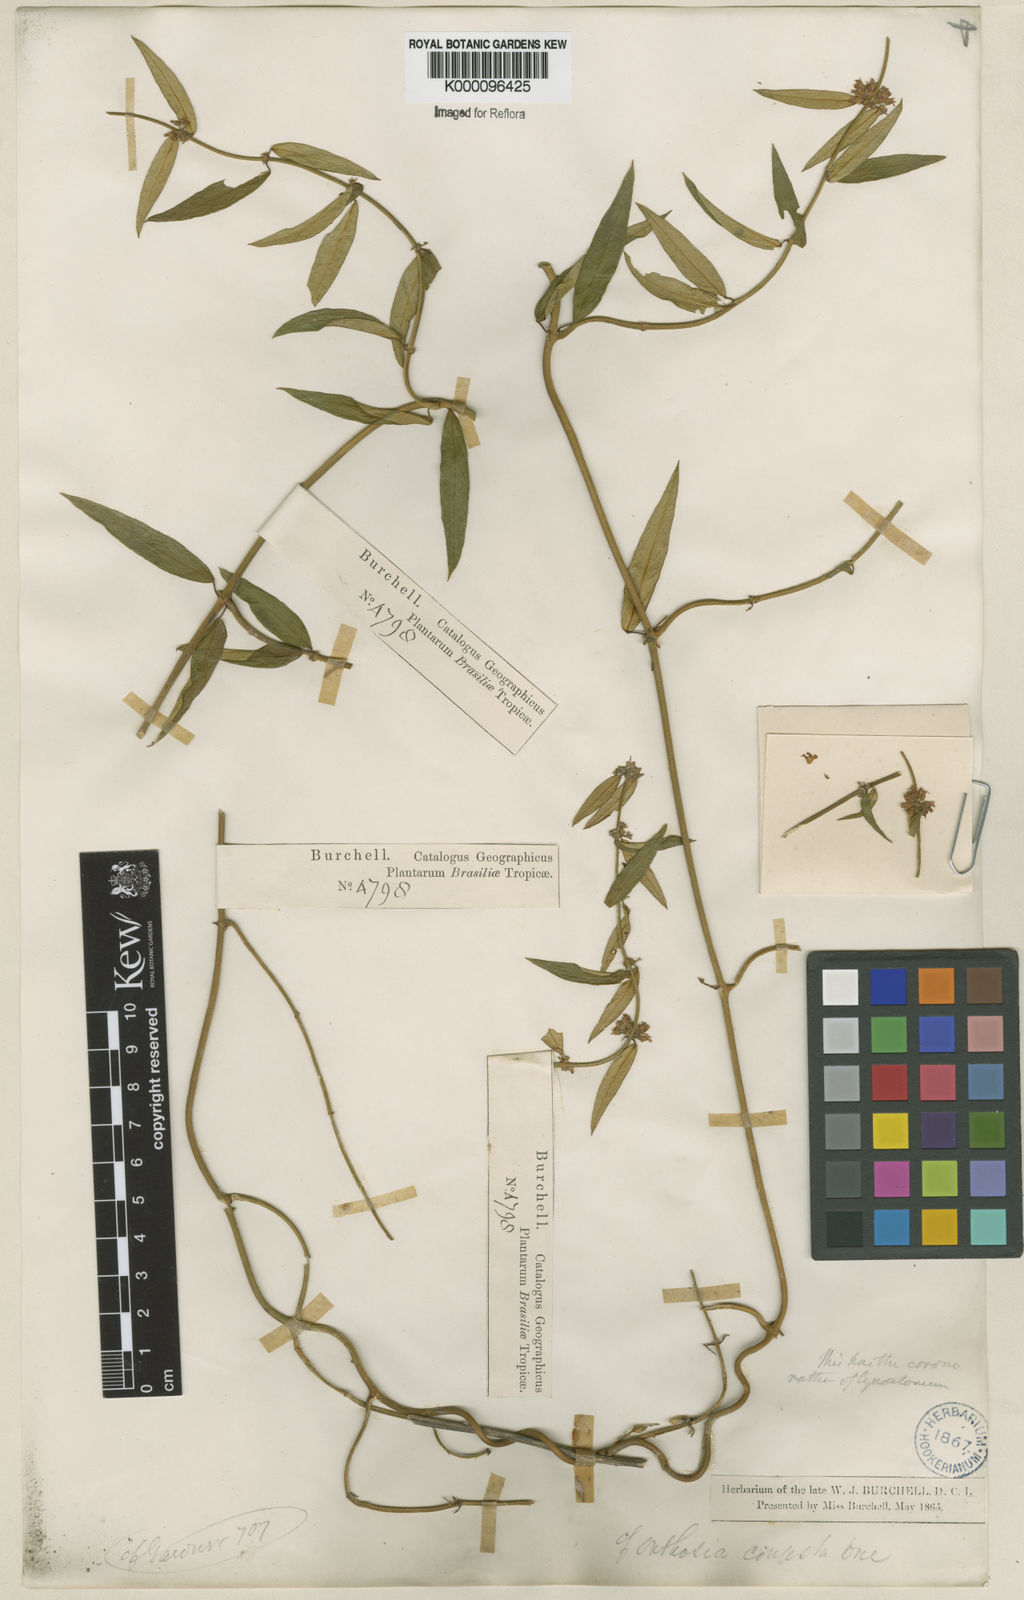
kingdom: Plantae
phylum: Tracheophyta
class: Magnoliopsida
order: Gentianales
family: Apocynaceae
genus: Orthosia
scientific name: Orthosia congesta
